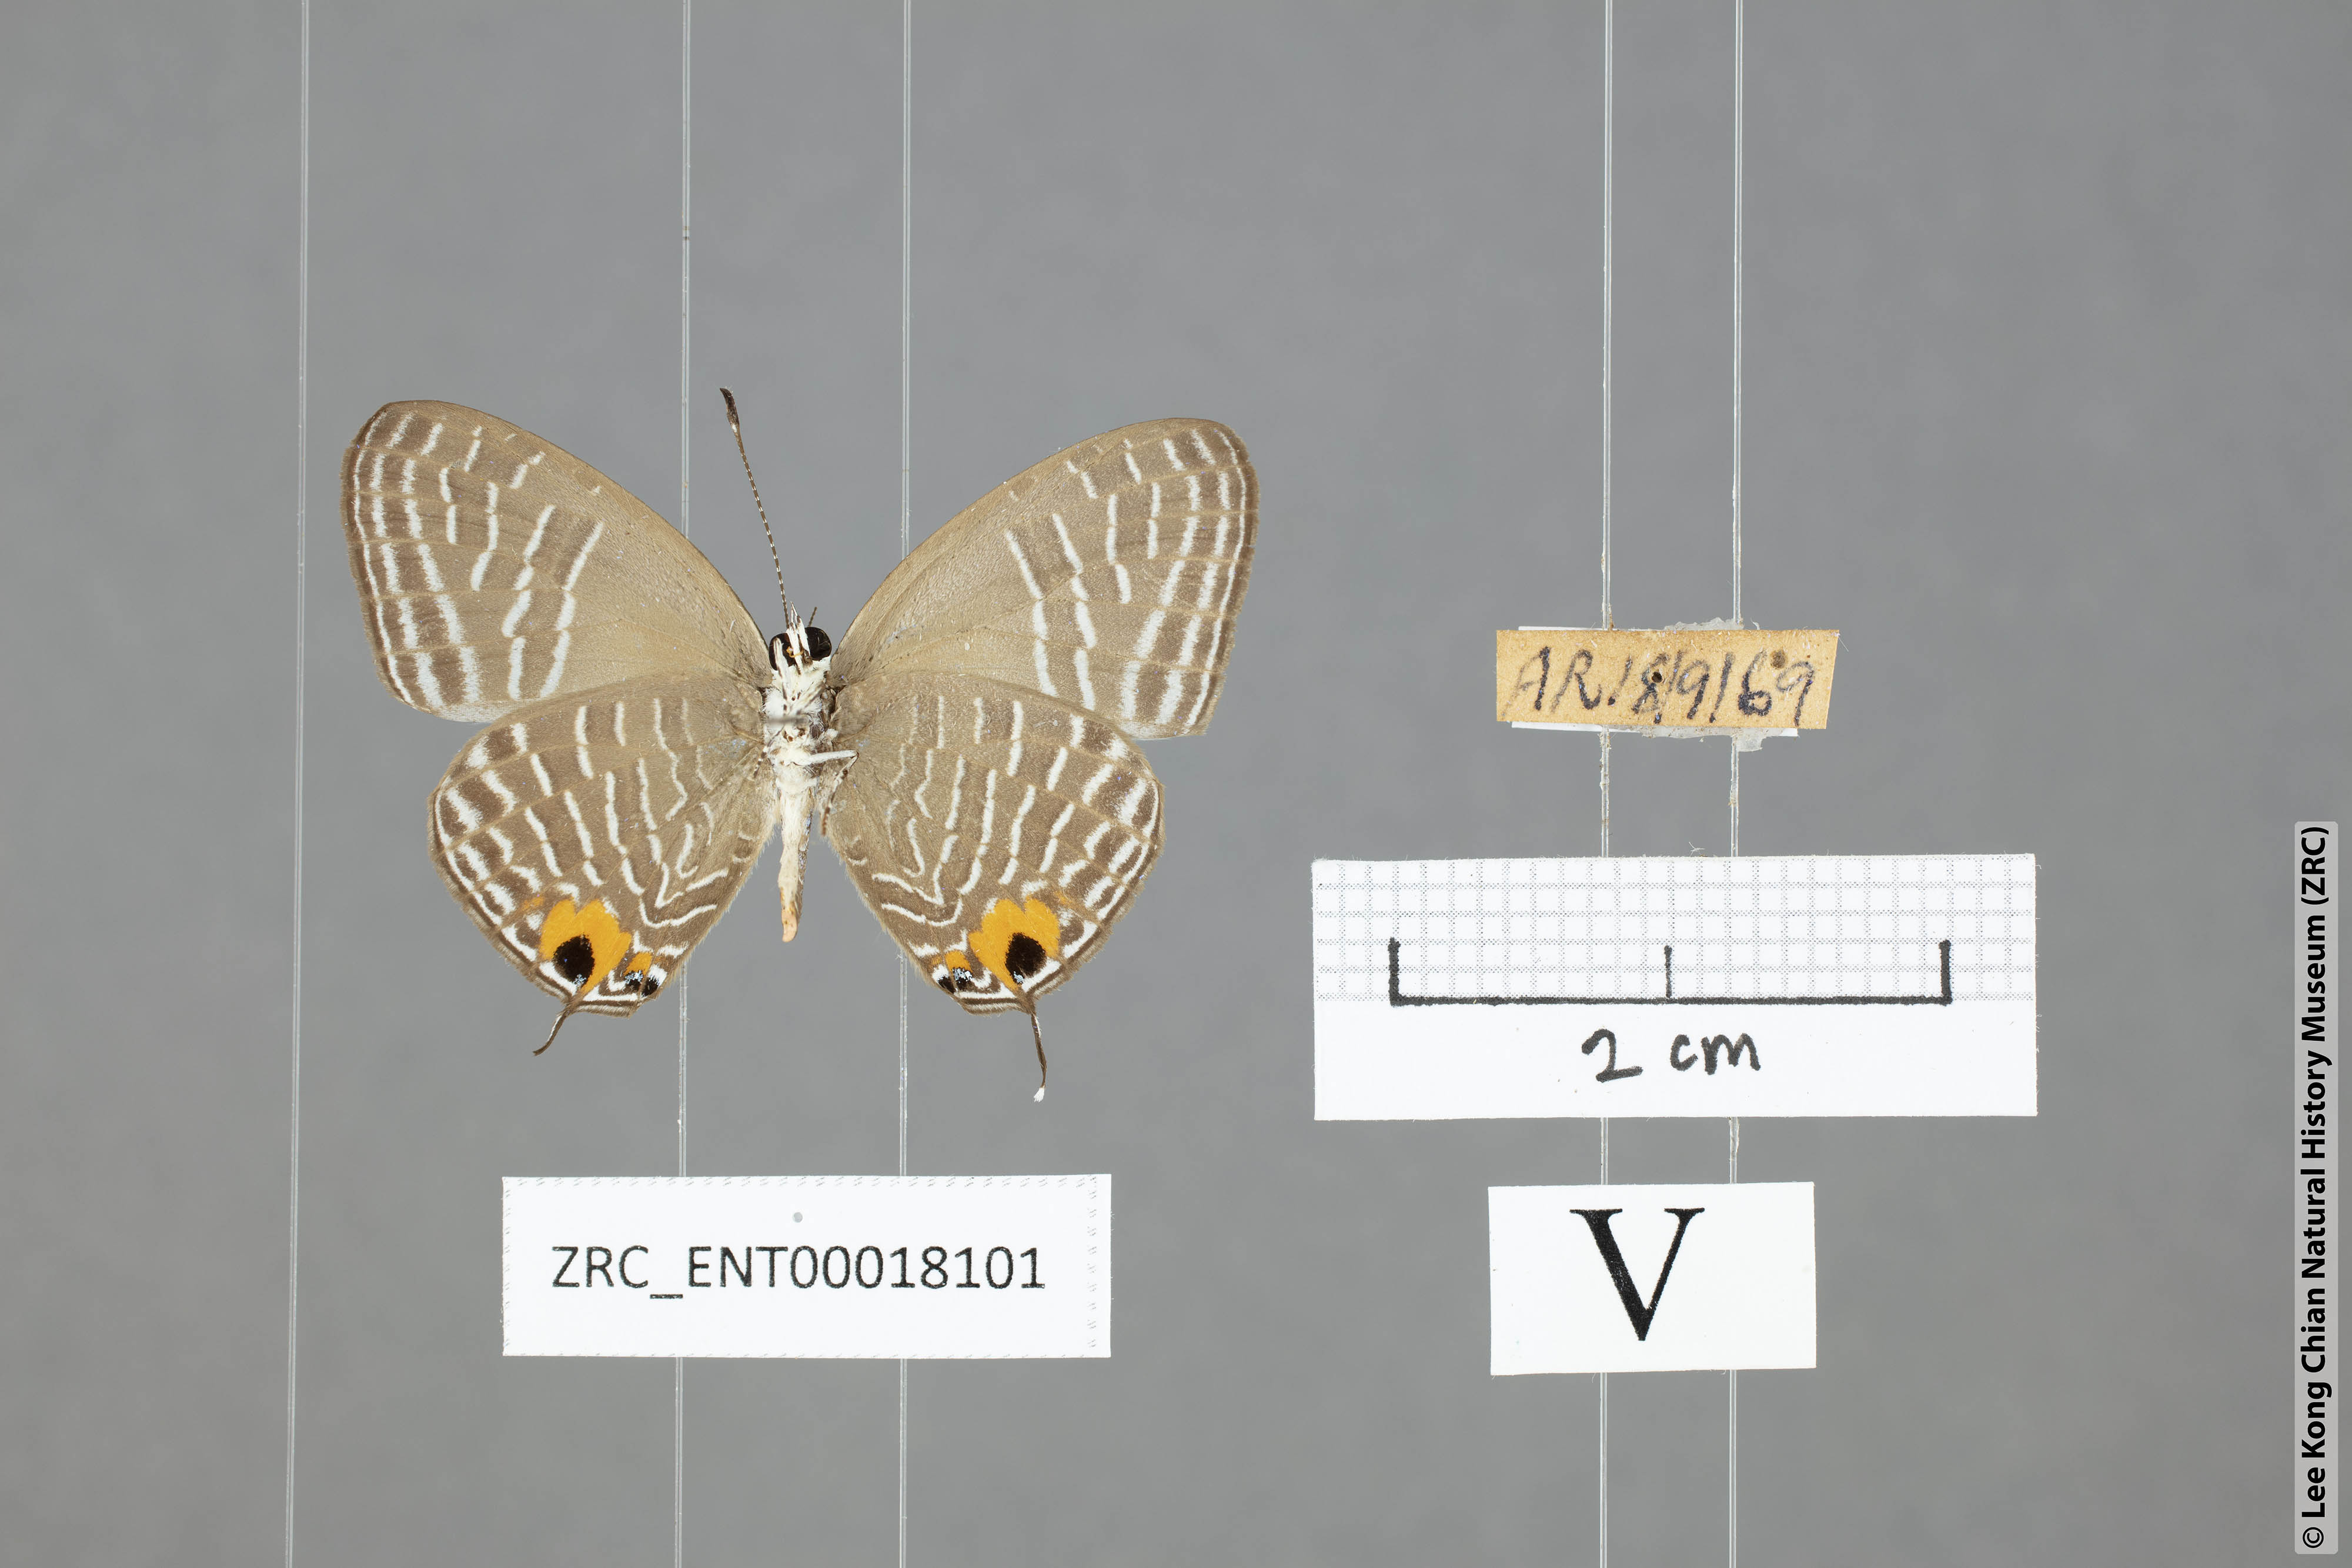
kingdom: Animalia
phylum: Arthropoda
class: Insecta
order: Lepidoptera
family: Lycaenidae
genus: Jamides
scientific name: Jamides
